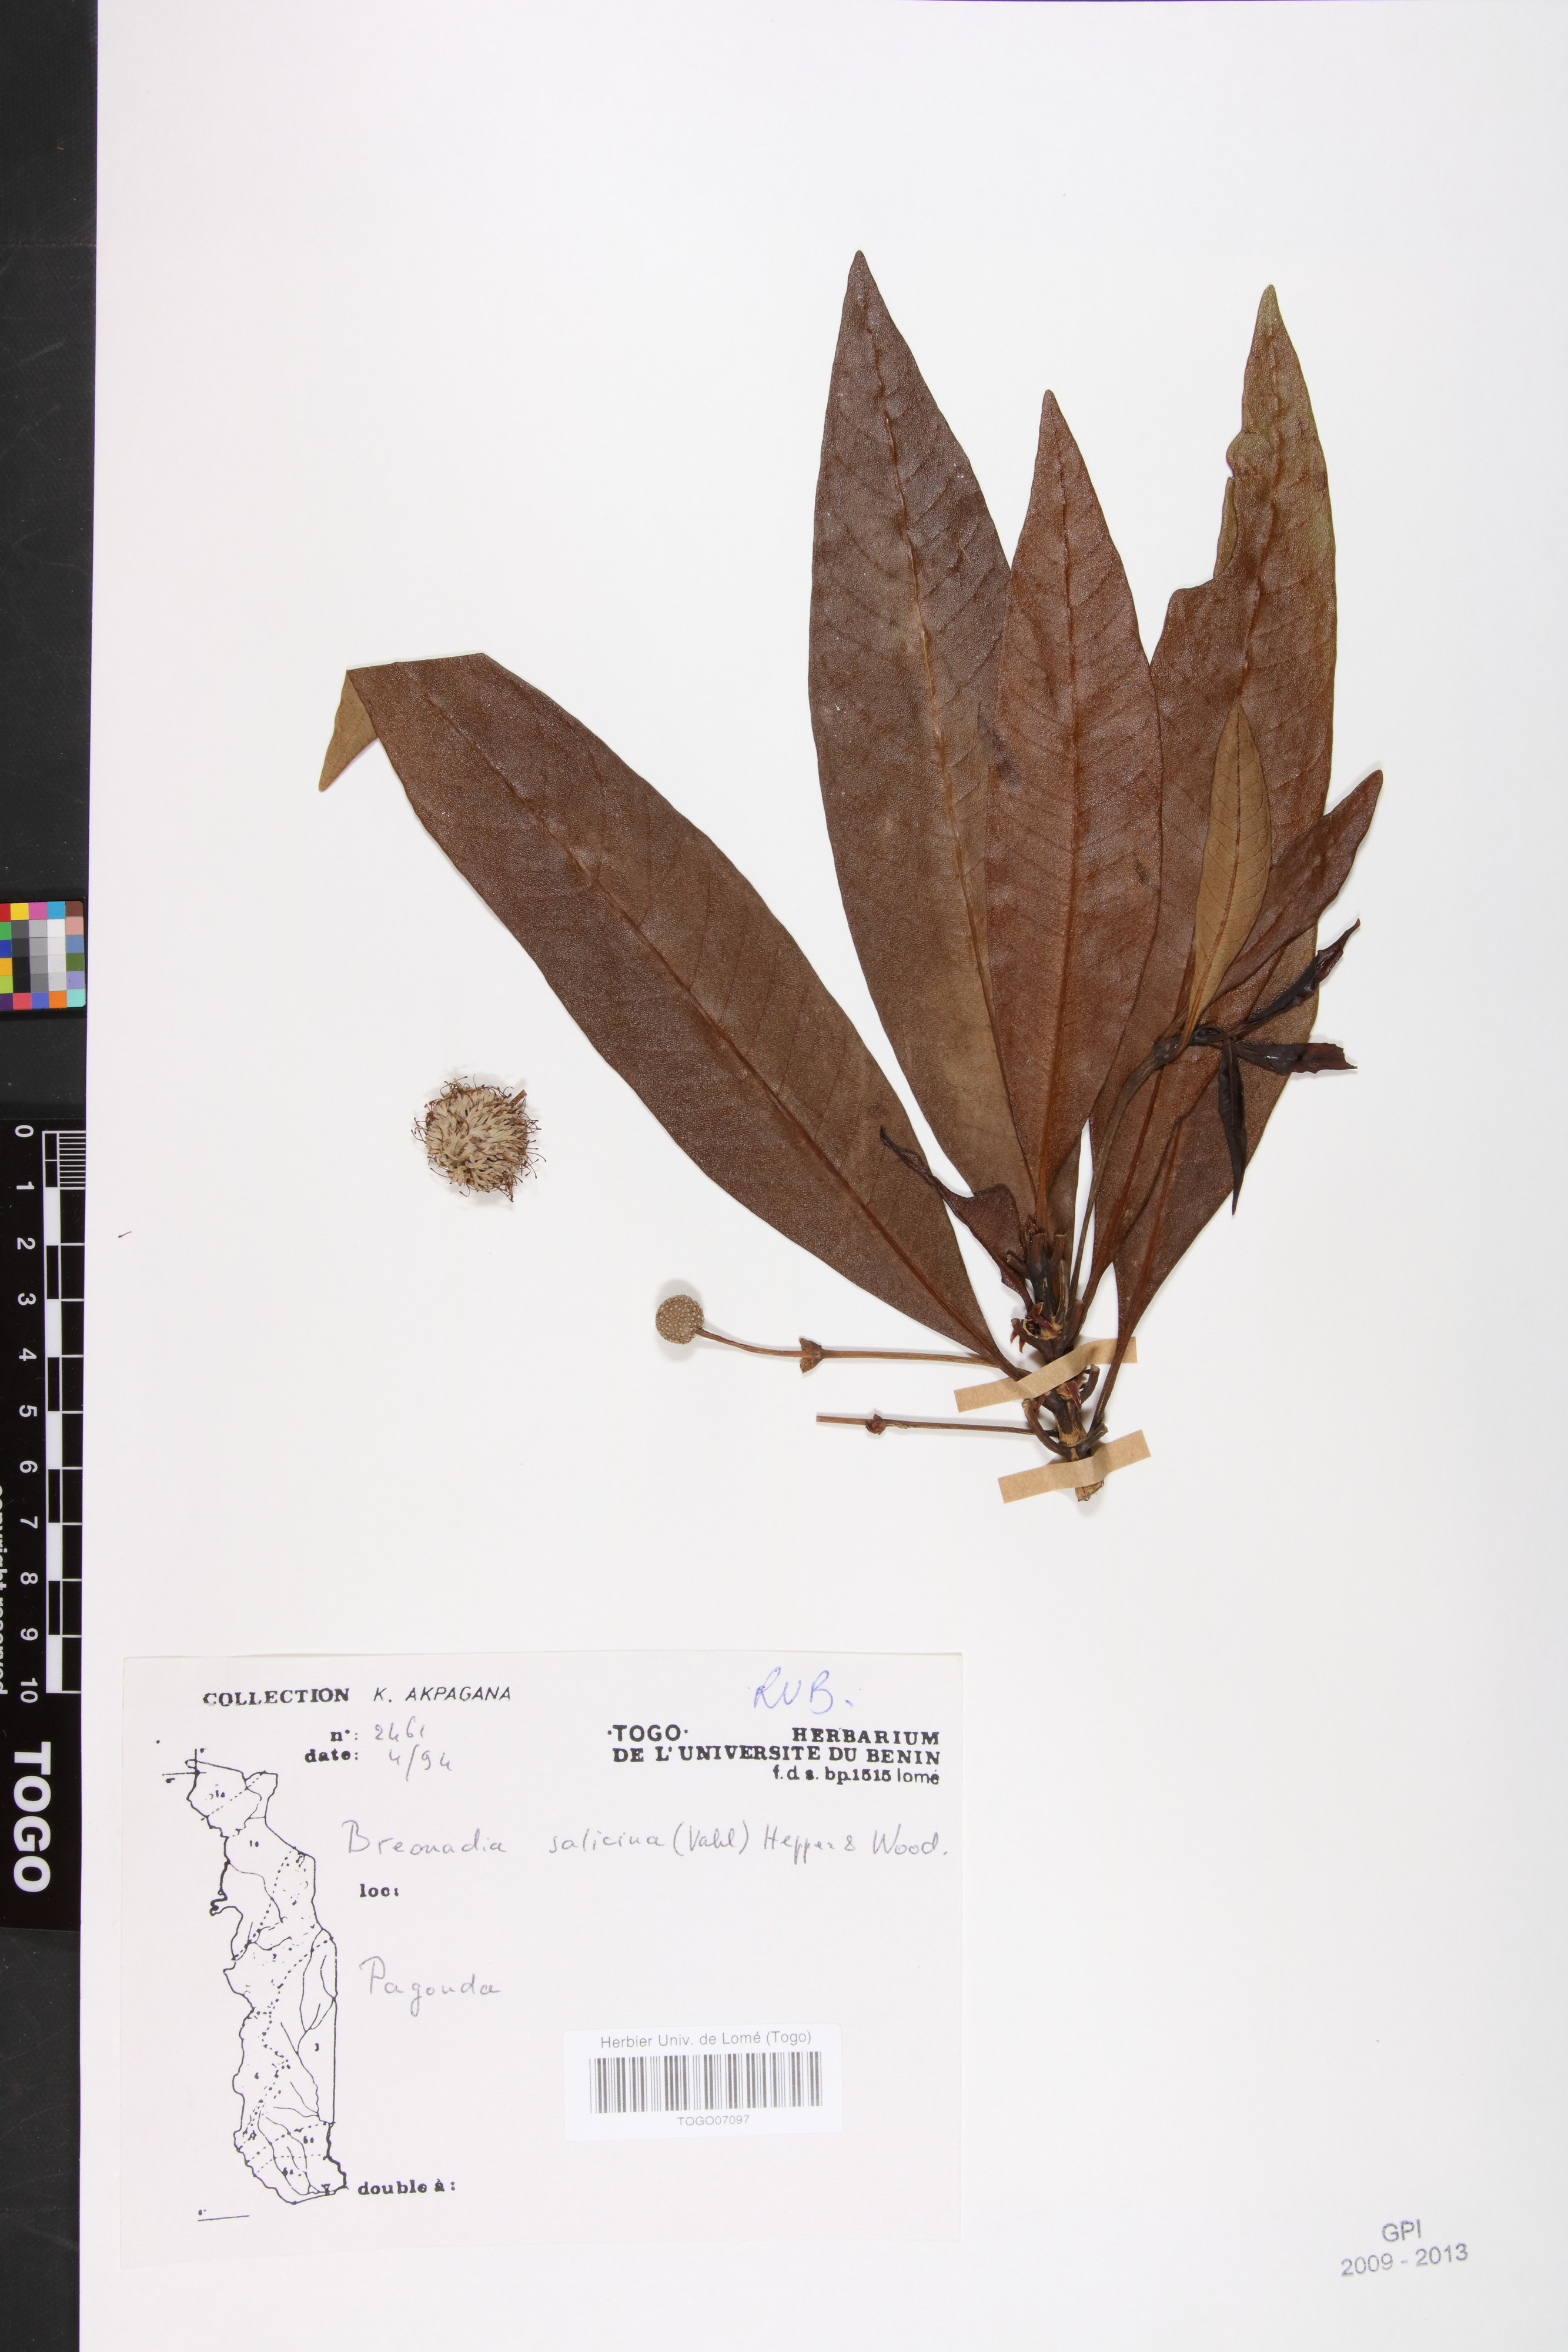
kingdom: Plantae
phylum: Tracheophyta
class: Magnoliopsida
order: Gentianales
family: Rubiaceae
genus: Breonadia
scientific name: Breonadia salicina
